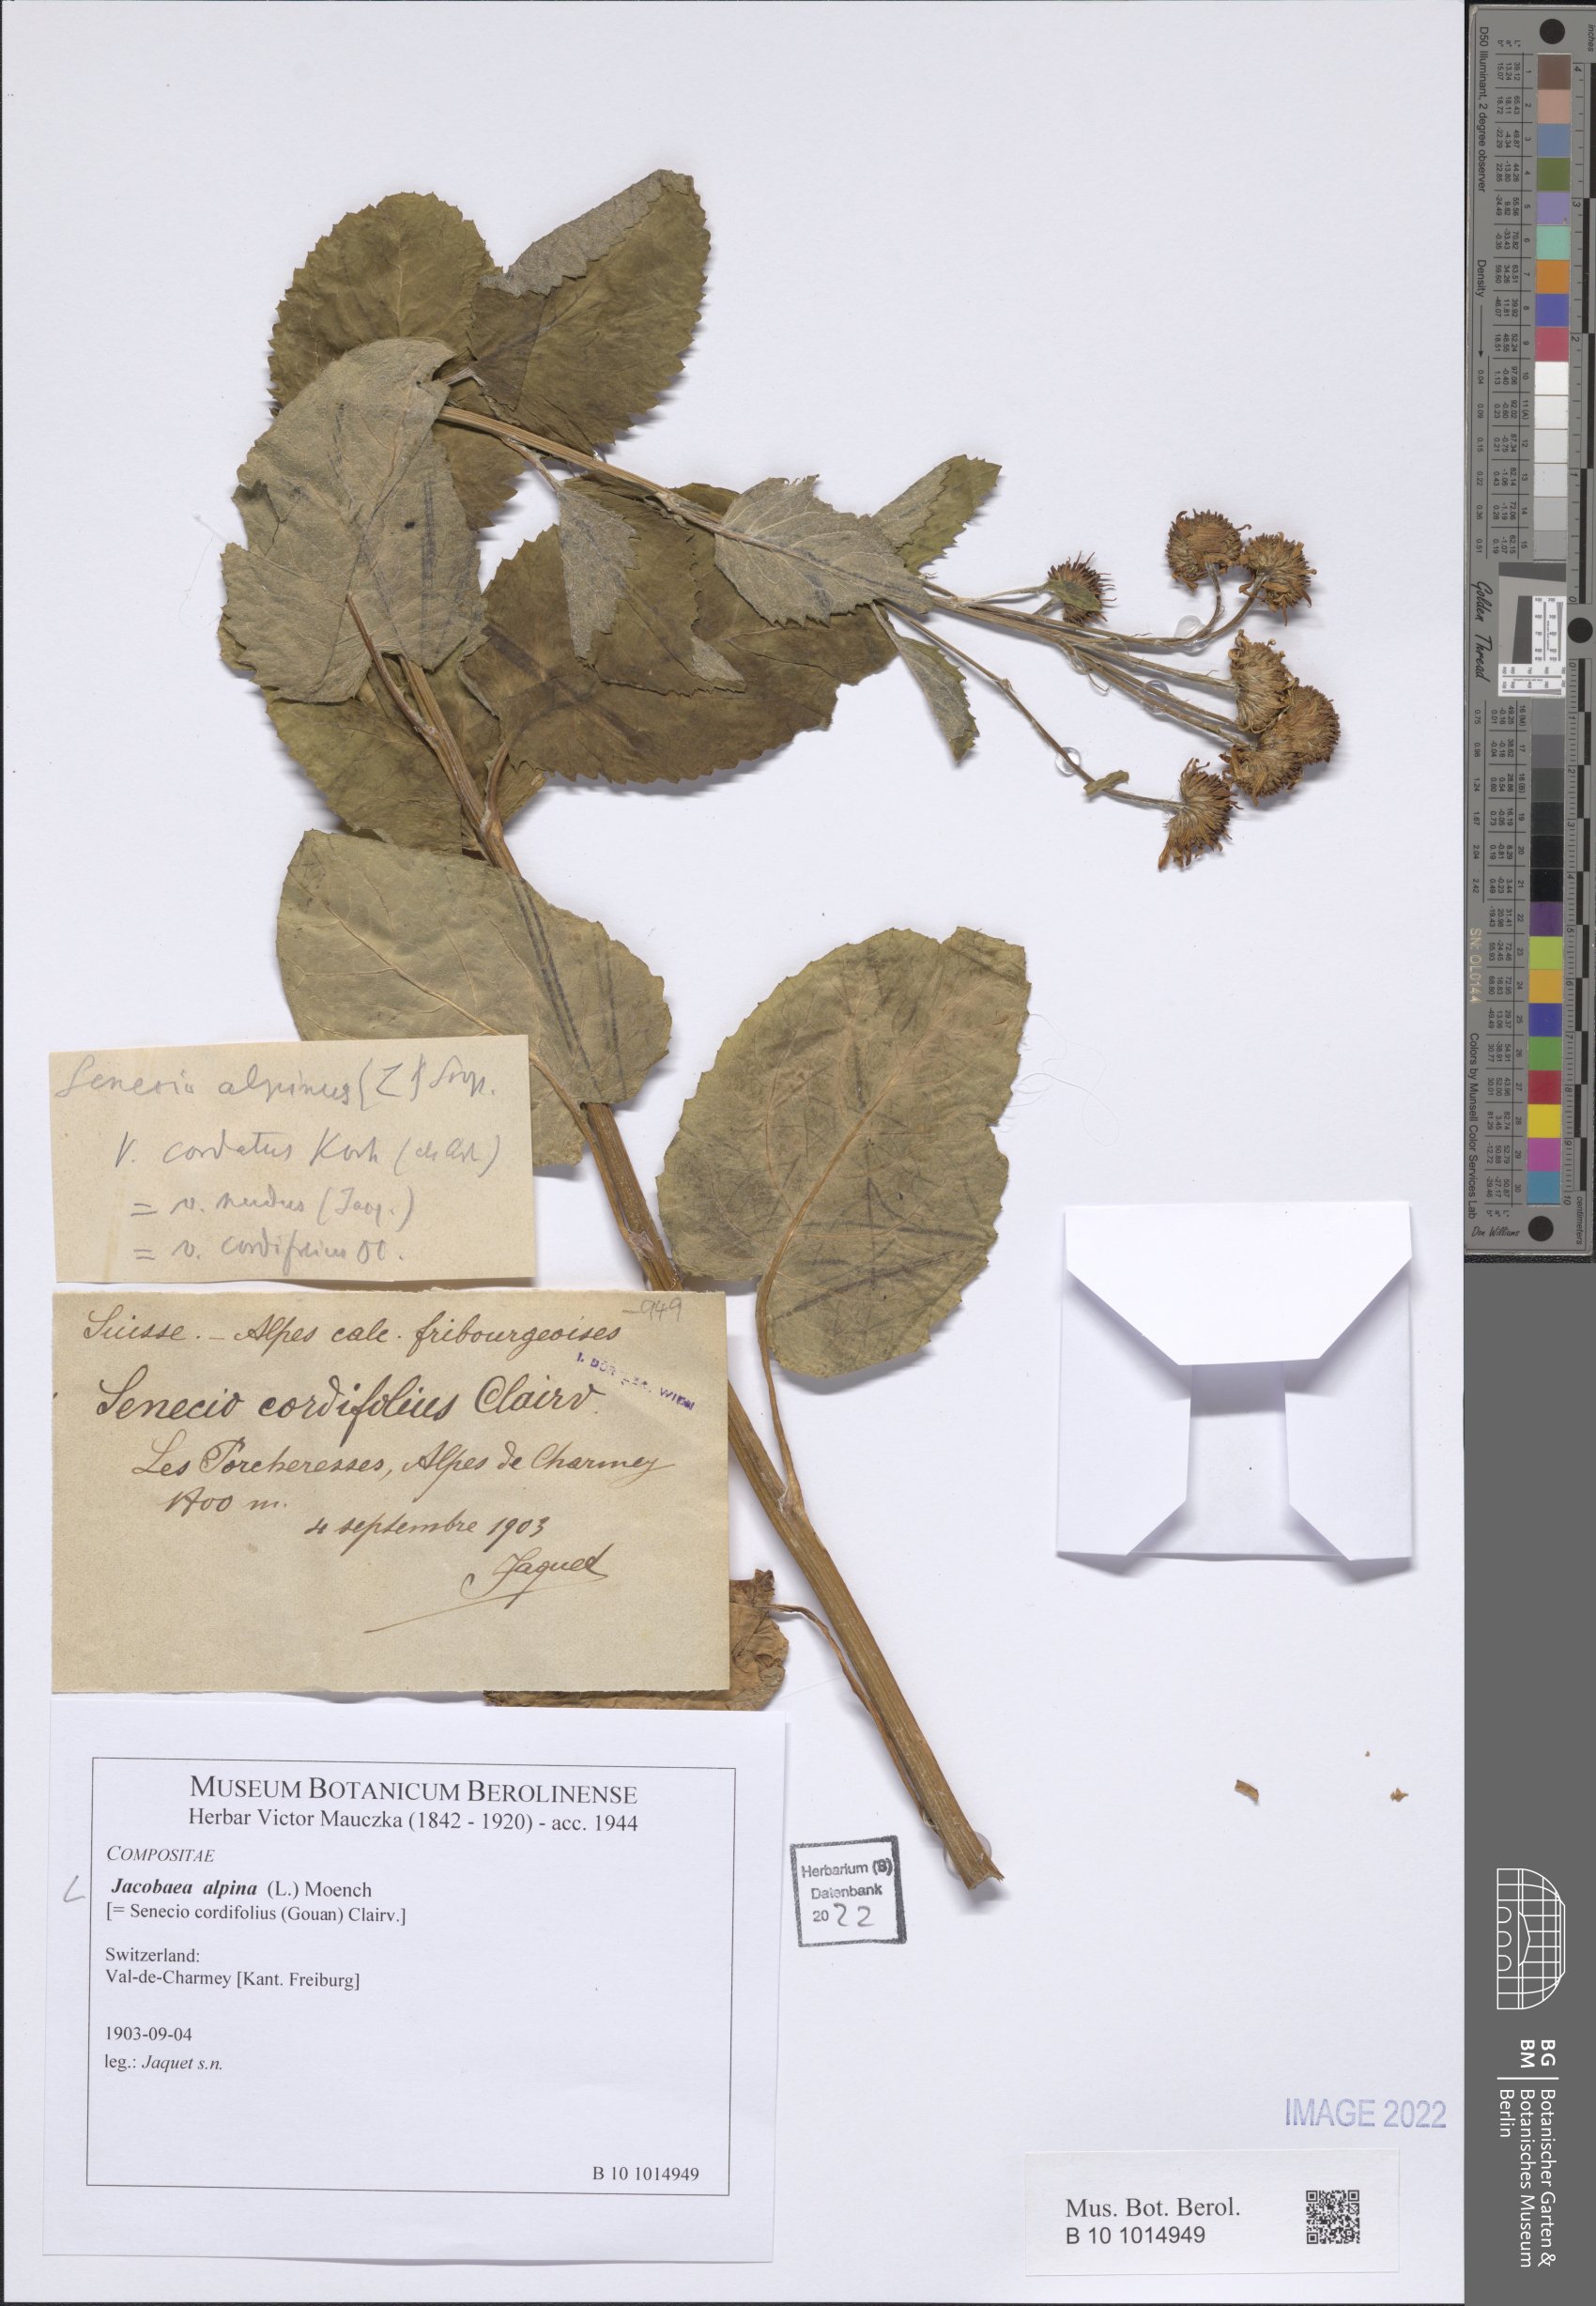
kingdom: Plantae
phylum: Tracheophyta
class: Magnoliopsida
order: Asterales
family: Asteraceae
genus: Jacobaea
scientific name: Jacobaea alpina
